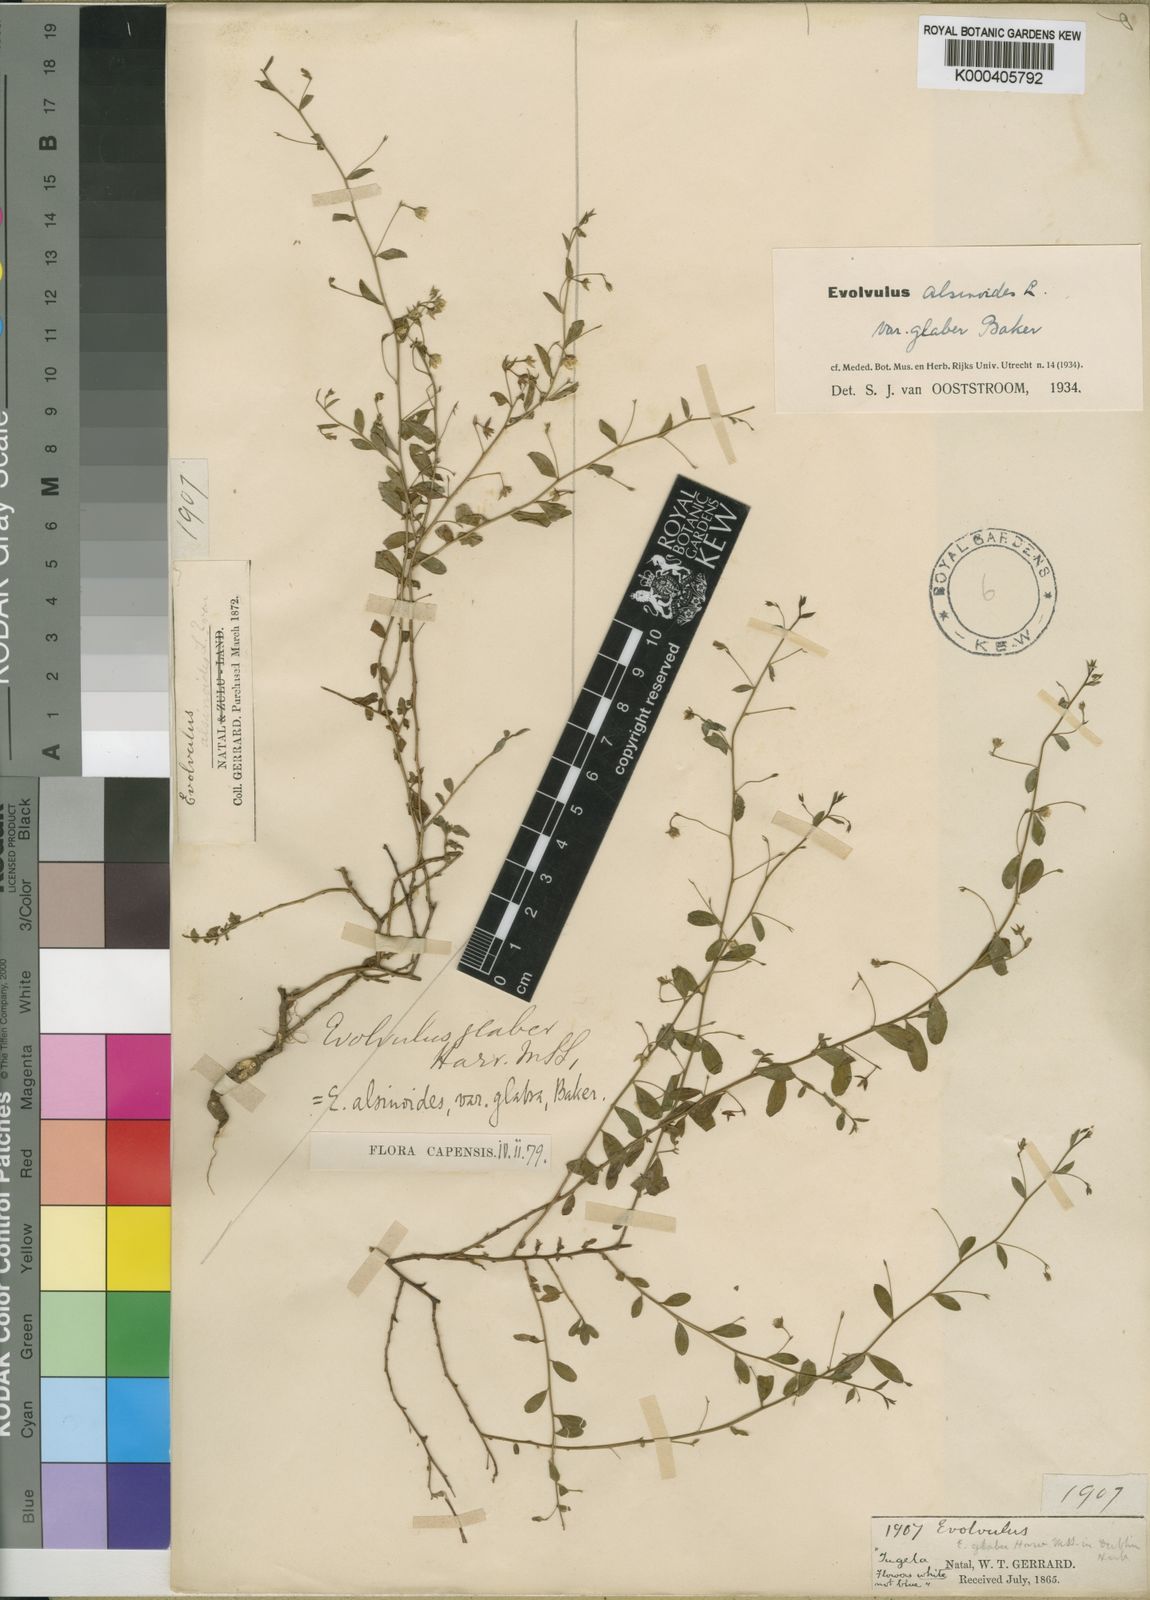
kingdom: Plantae
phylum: Tracheophyta
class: Magnoliopsida
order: Solanales
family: Convolvulaceae
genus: Evolvulus
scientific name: Evolvulus alsinoides
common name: Slender dwarf morning-glory
